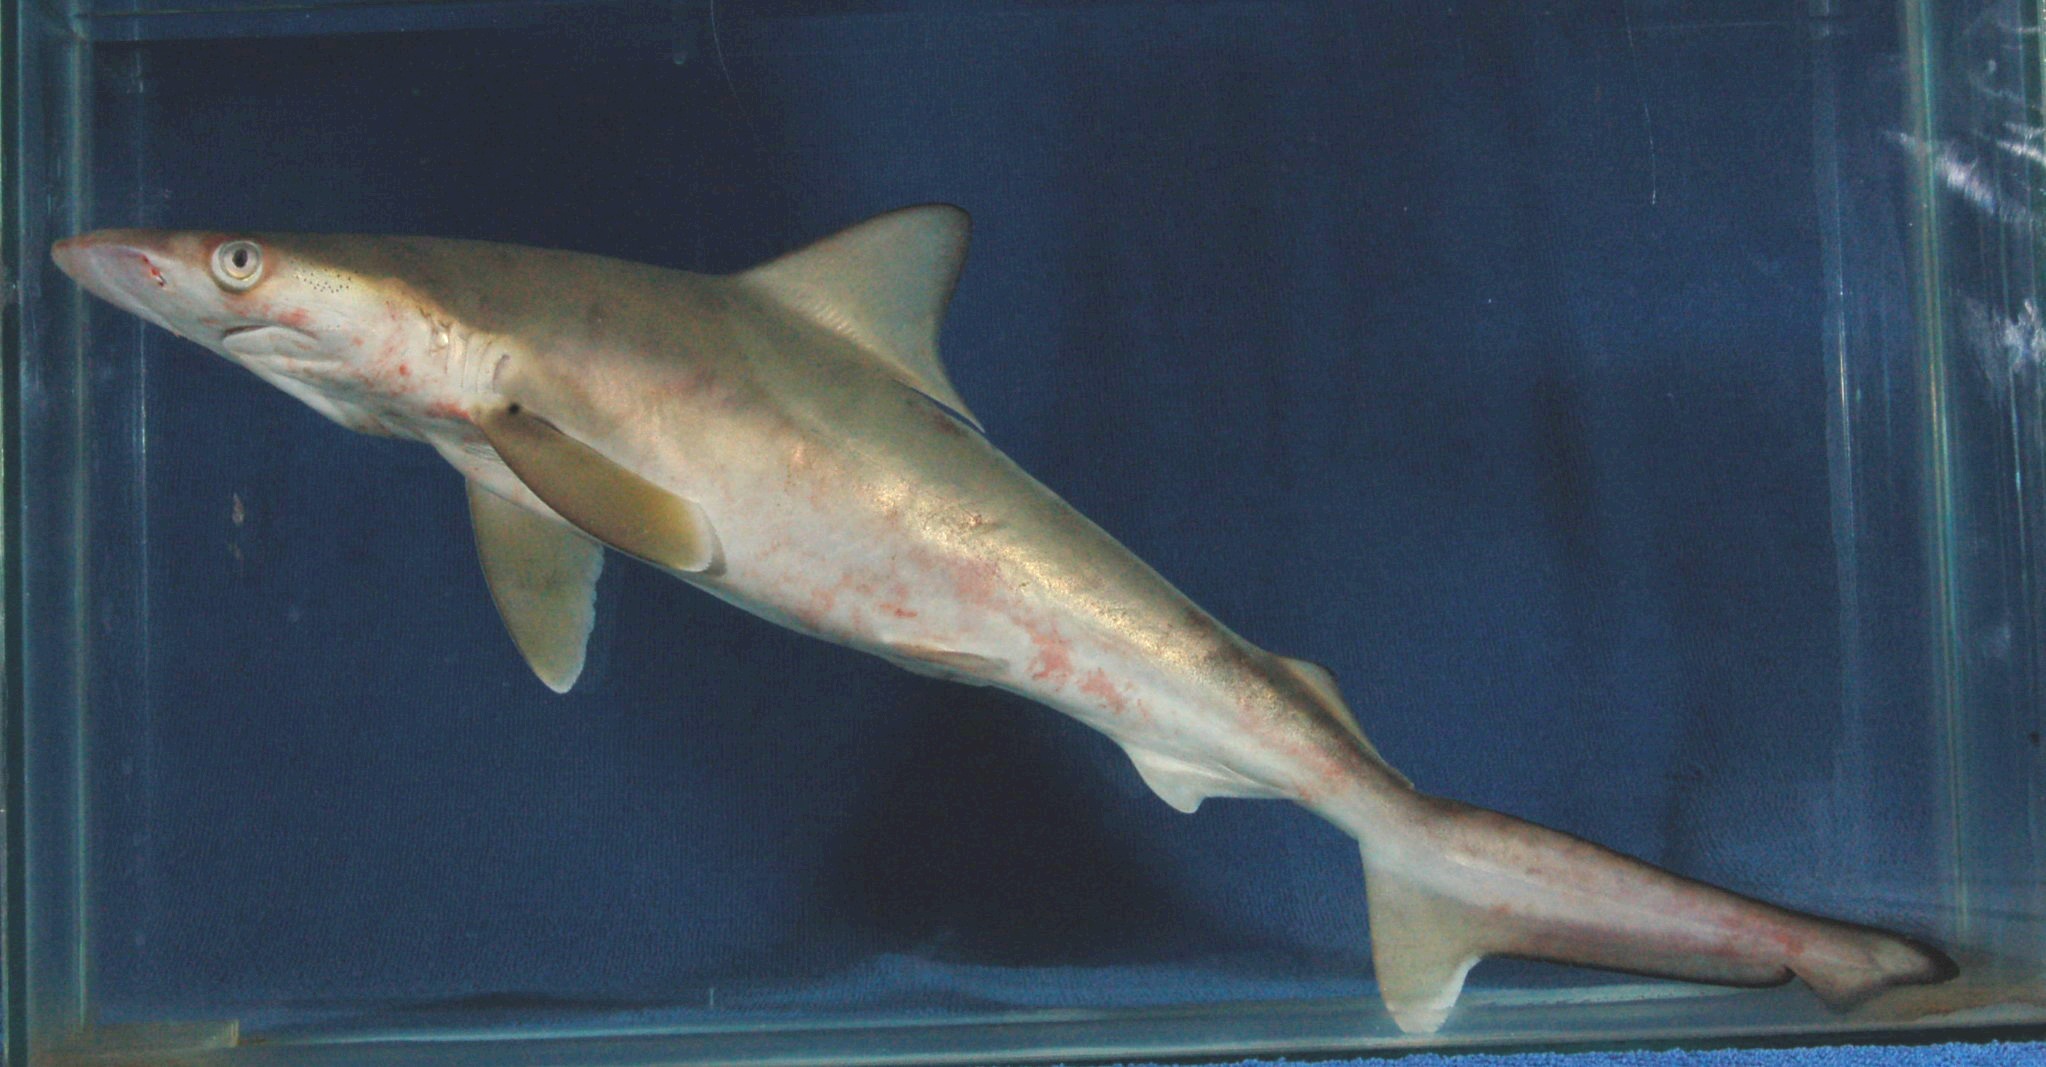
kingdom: Animalia
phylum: Chordata
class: Elasmobranchii
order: Carcharhiniformes
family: Carcharhinidae
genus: Rhizoprionodon
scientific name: Rhizoprionodon acutus
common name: Milk shark
